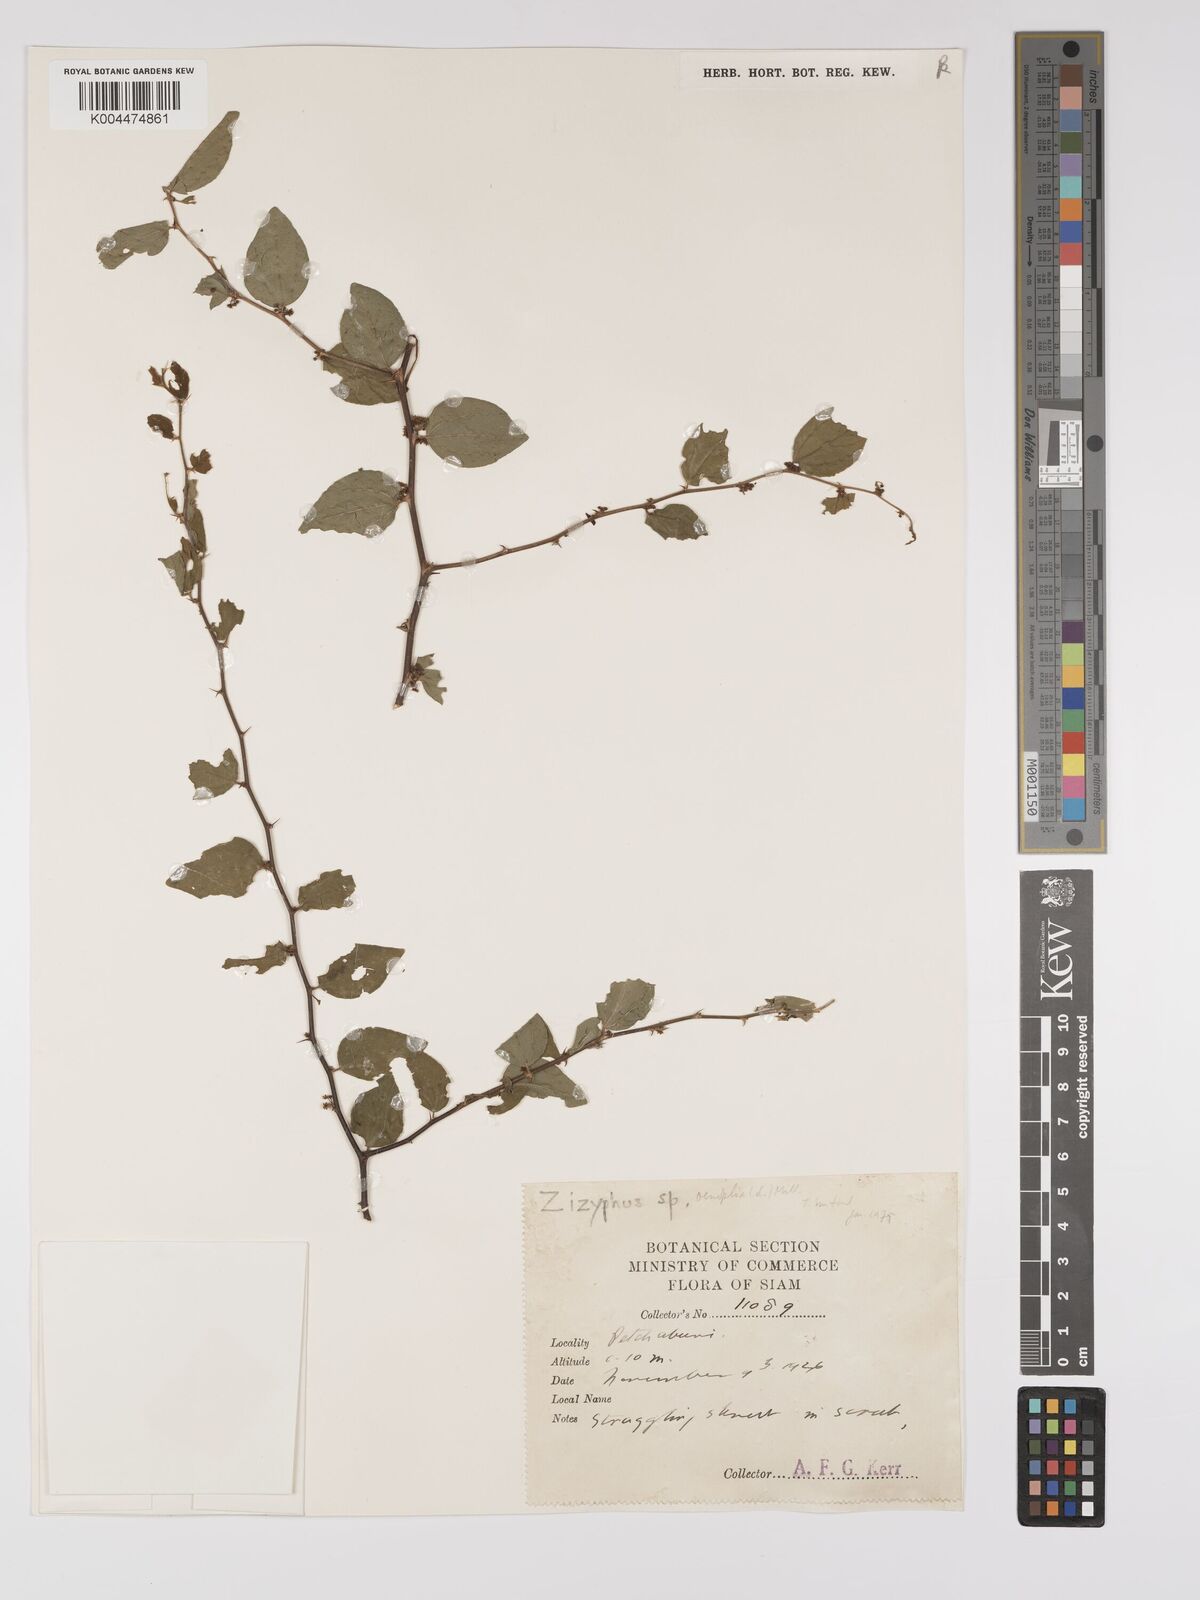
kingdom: Plantae
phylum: Tracheophyta
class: Magnoliopsida
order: Rosales
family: Rhamnaceae
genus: Ziziphus
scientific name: Ziziphus
